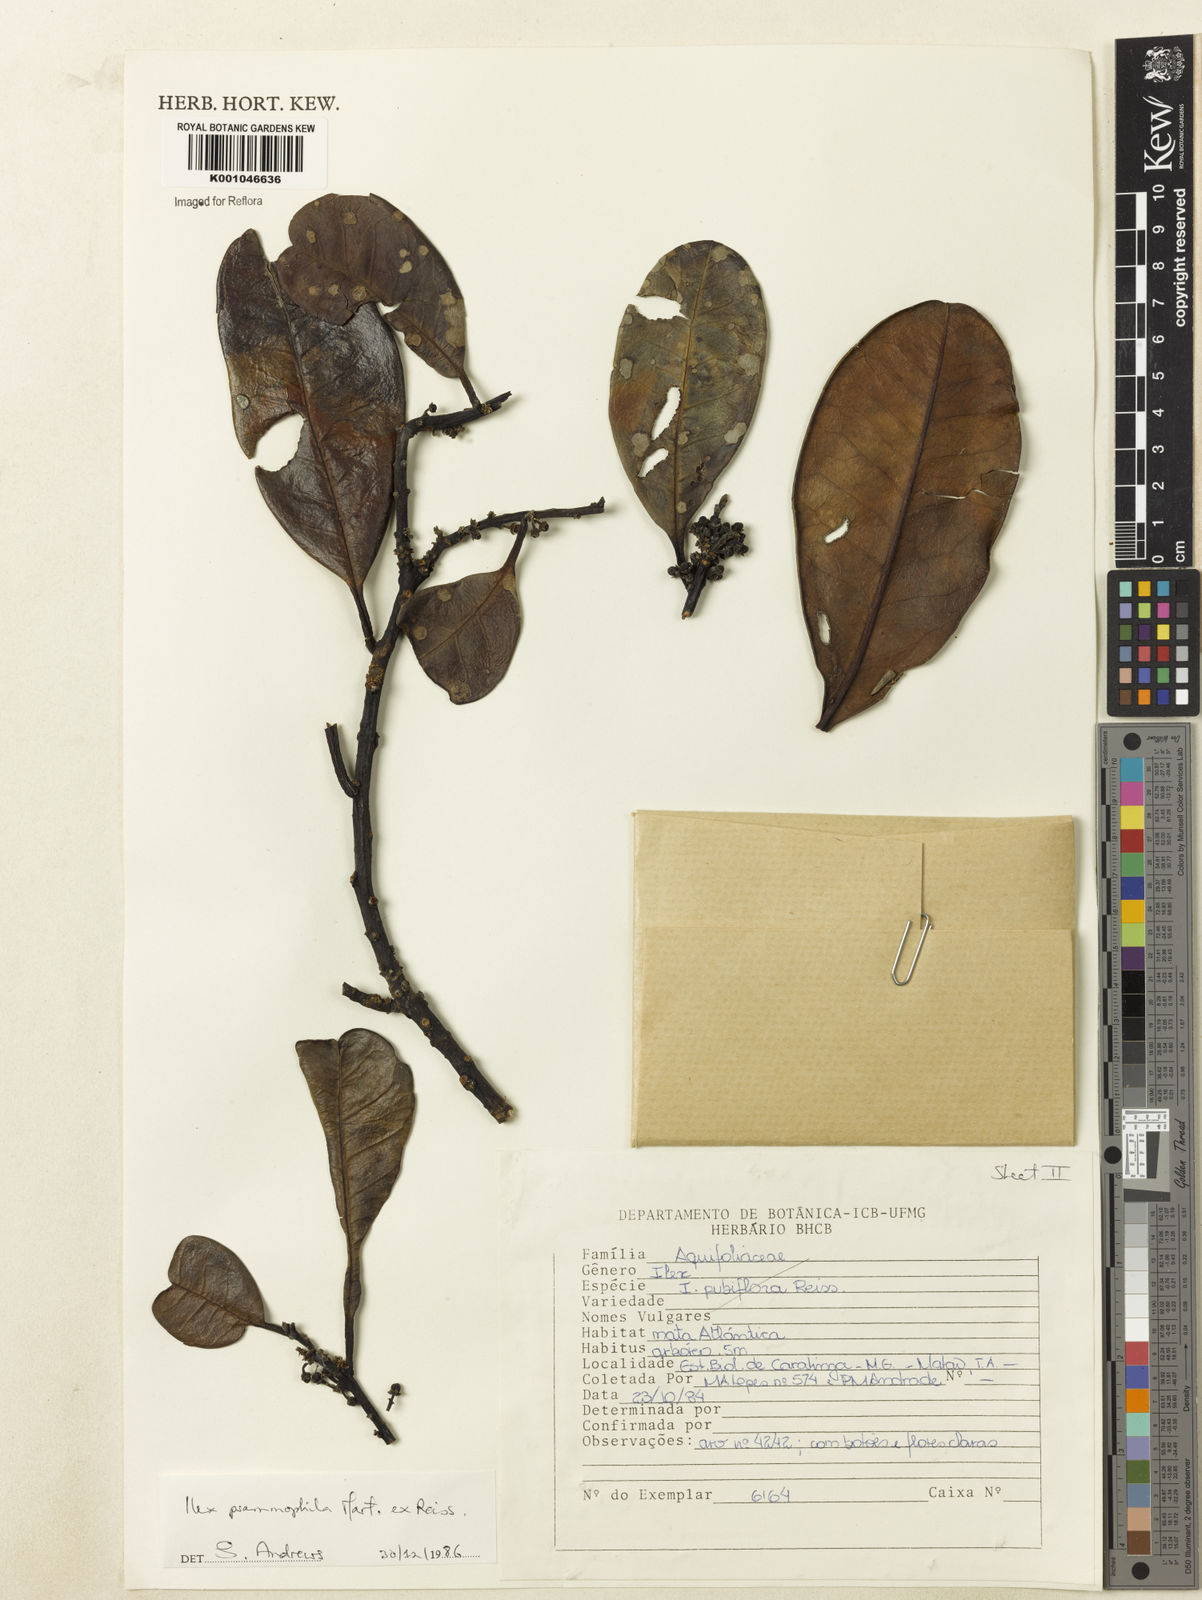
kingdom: Plantae
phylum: Tracheophyta
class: Magnoliopsida
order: Aquifoliales
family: Aquifoliaceae
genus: Ilex
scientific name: Ilex psammophila
